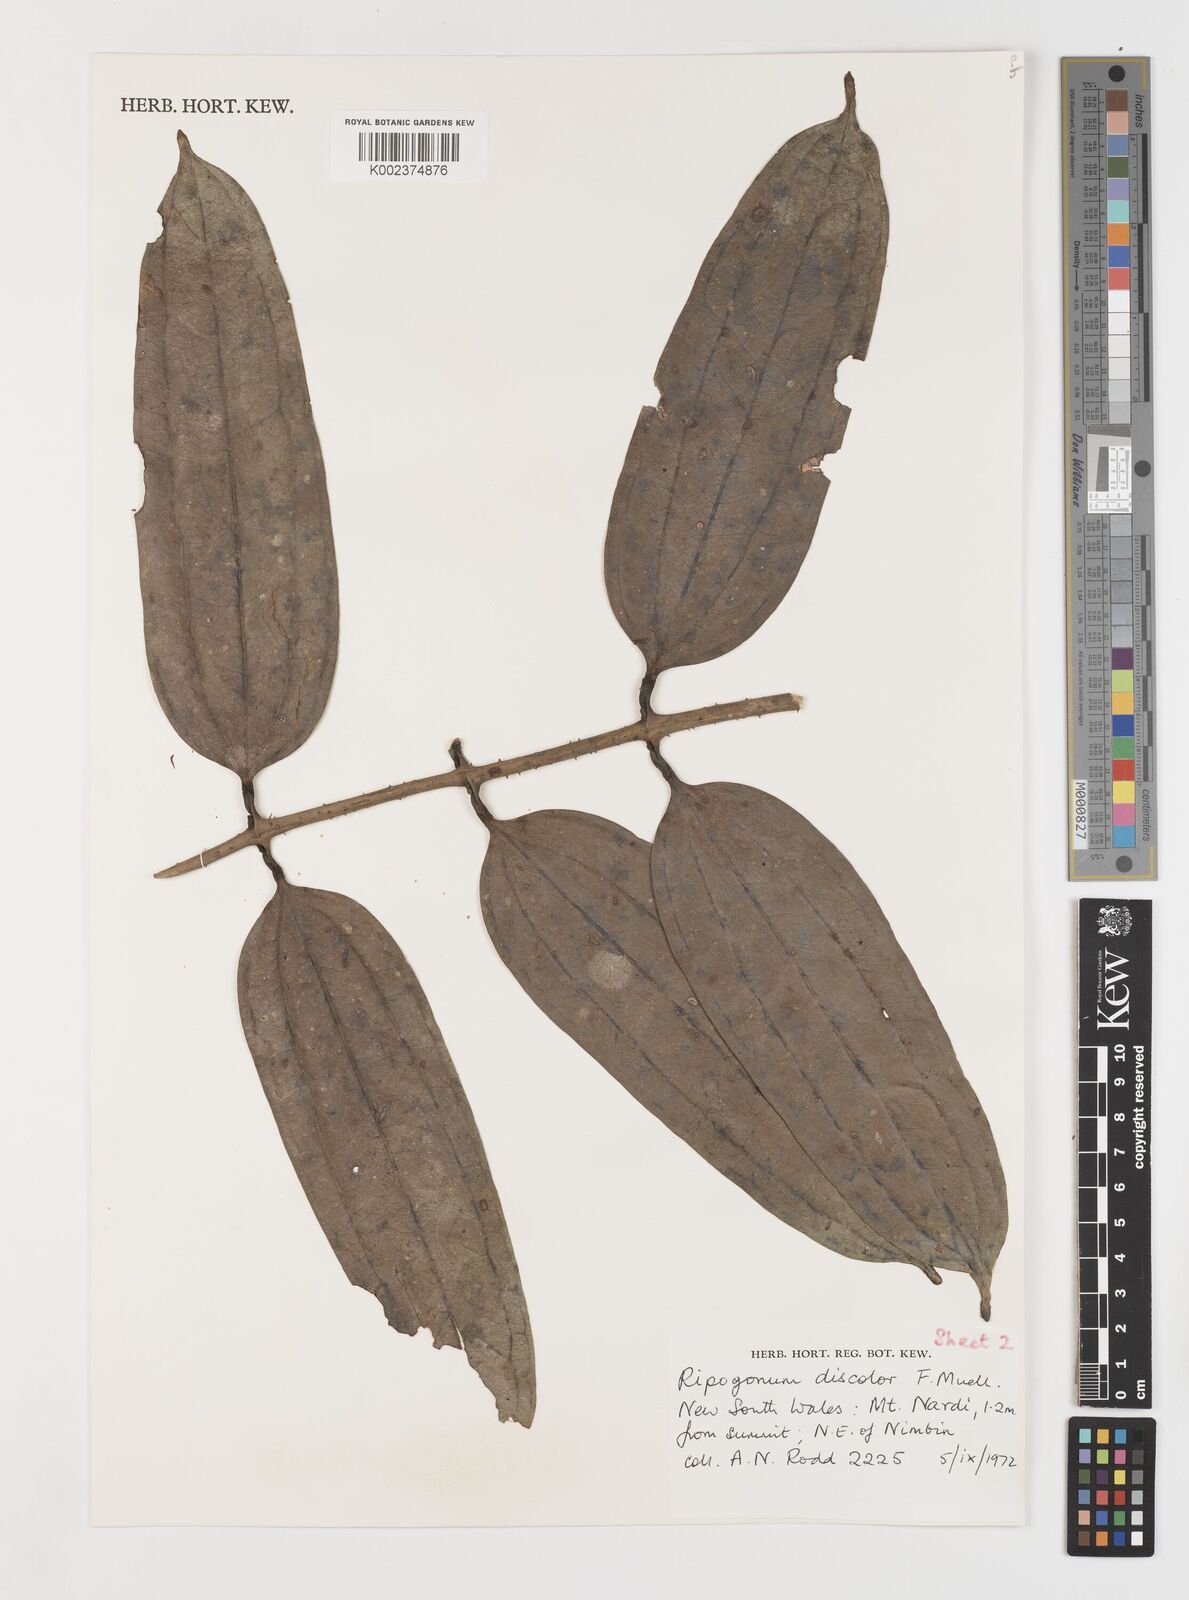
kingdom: Plantae
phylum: Tracheophyta
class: Liliopsida
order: Liliales
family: Ripogonaceae
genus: Ripogonum
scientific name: Ripogonum discolor
